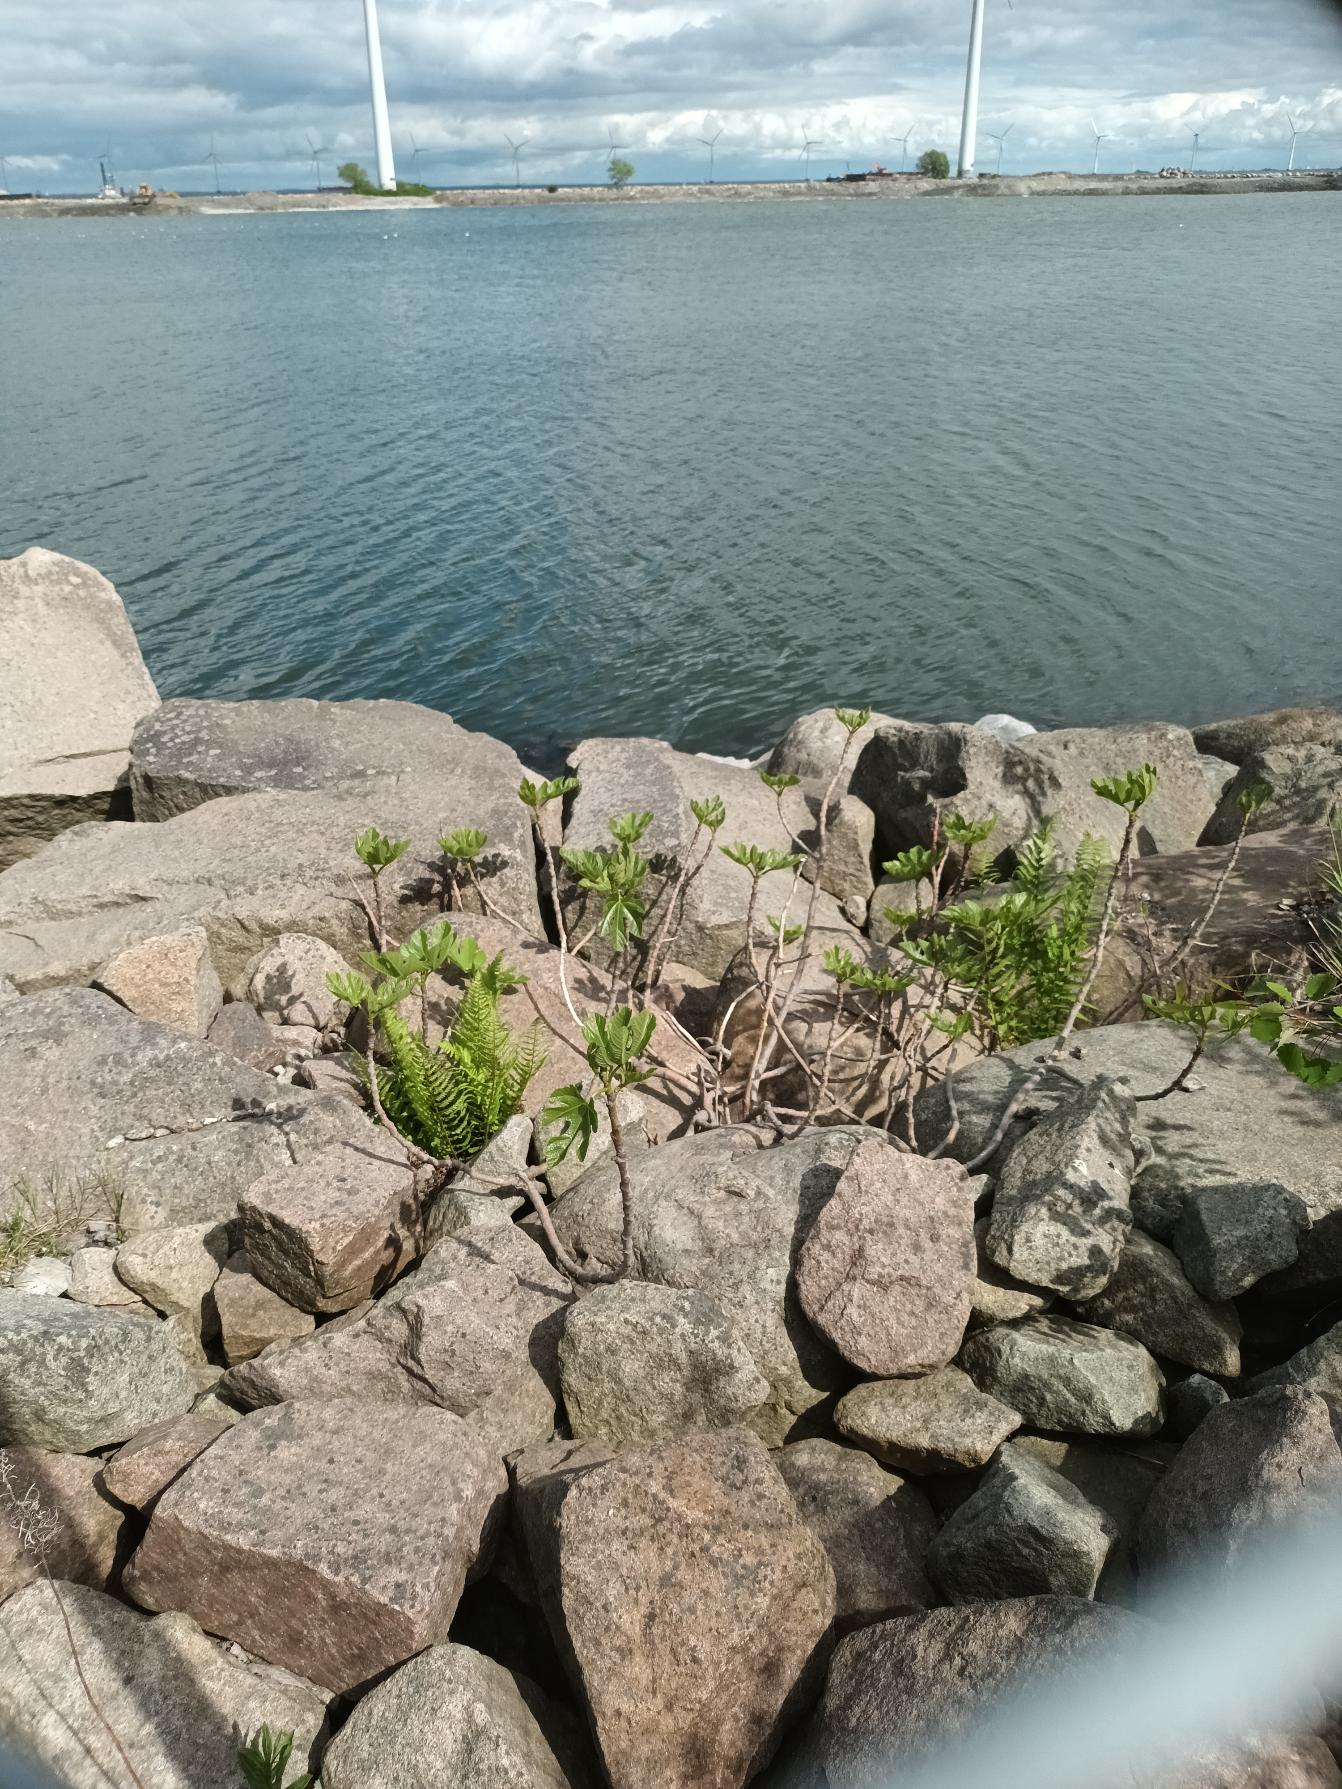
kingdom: Plantae
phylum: Tracheophyta
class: Magnoliopsida
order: Rosales
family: Moraceae
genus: Ficus
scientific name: Ficus carica
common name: Figen
